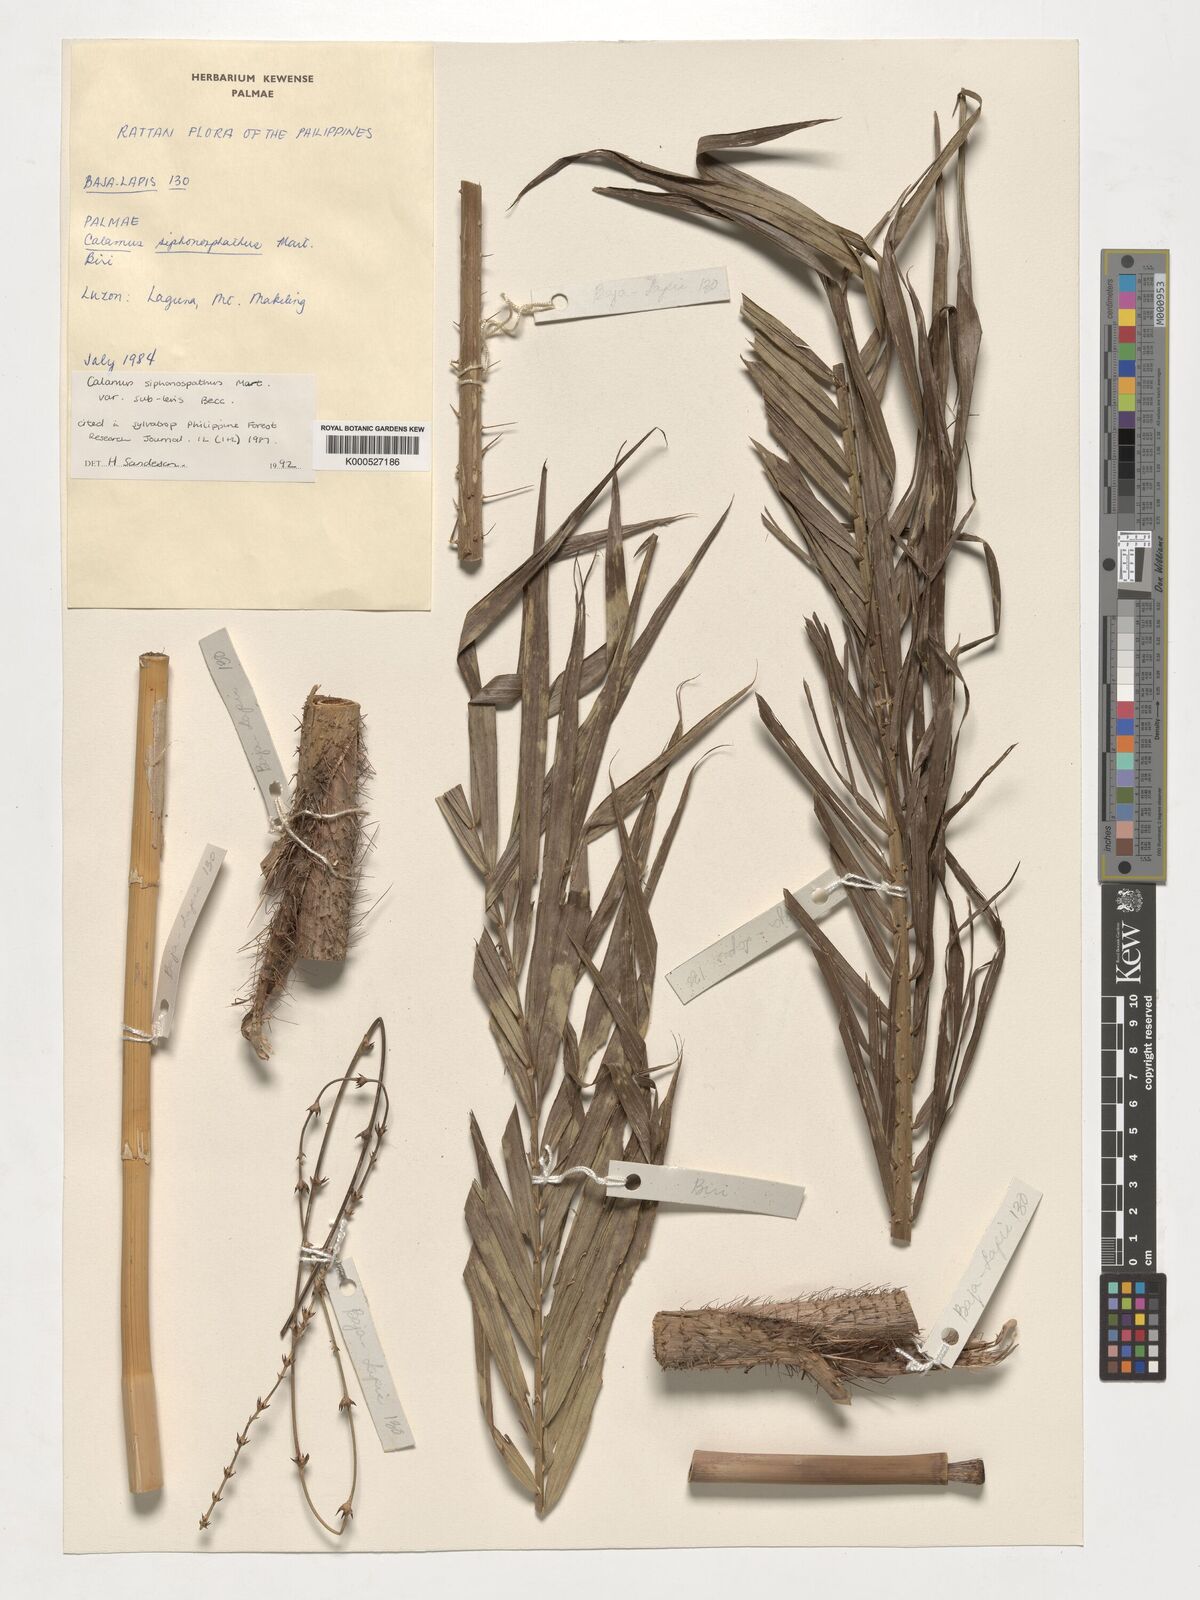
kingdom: Plantae
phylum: Tracheophyta
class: Liliopsida
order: Arecales
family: Arecaceae
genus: Calamus
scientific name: Calamus siphonospathus
